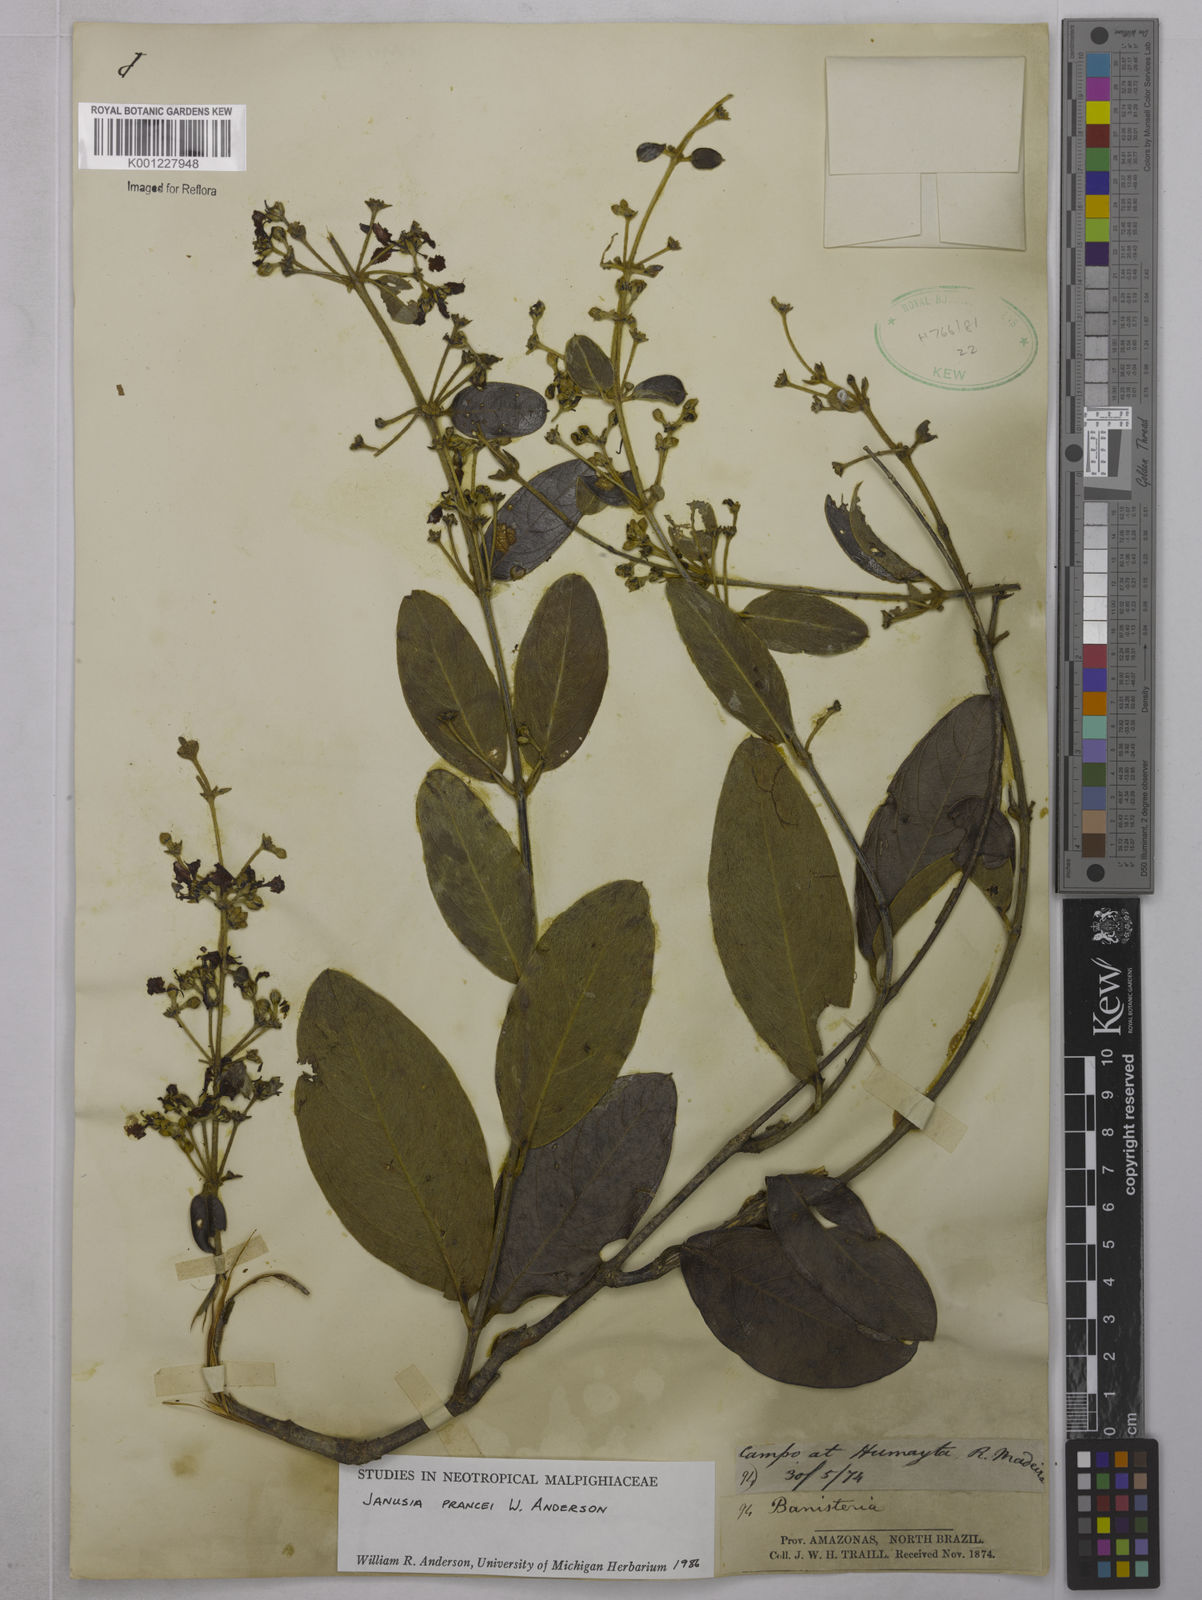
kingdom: Plantae
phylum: Tracheophyta
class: Magnoliopsida
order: Malpighiales
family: Malpighiaceae
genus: Janusia
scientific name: Janusia prancei
